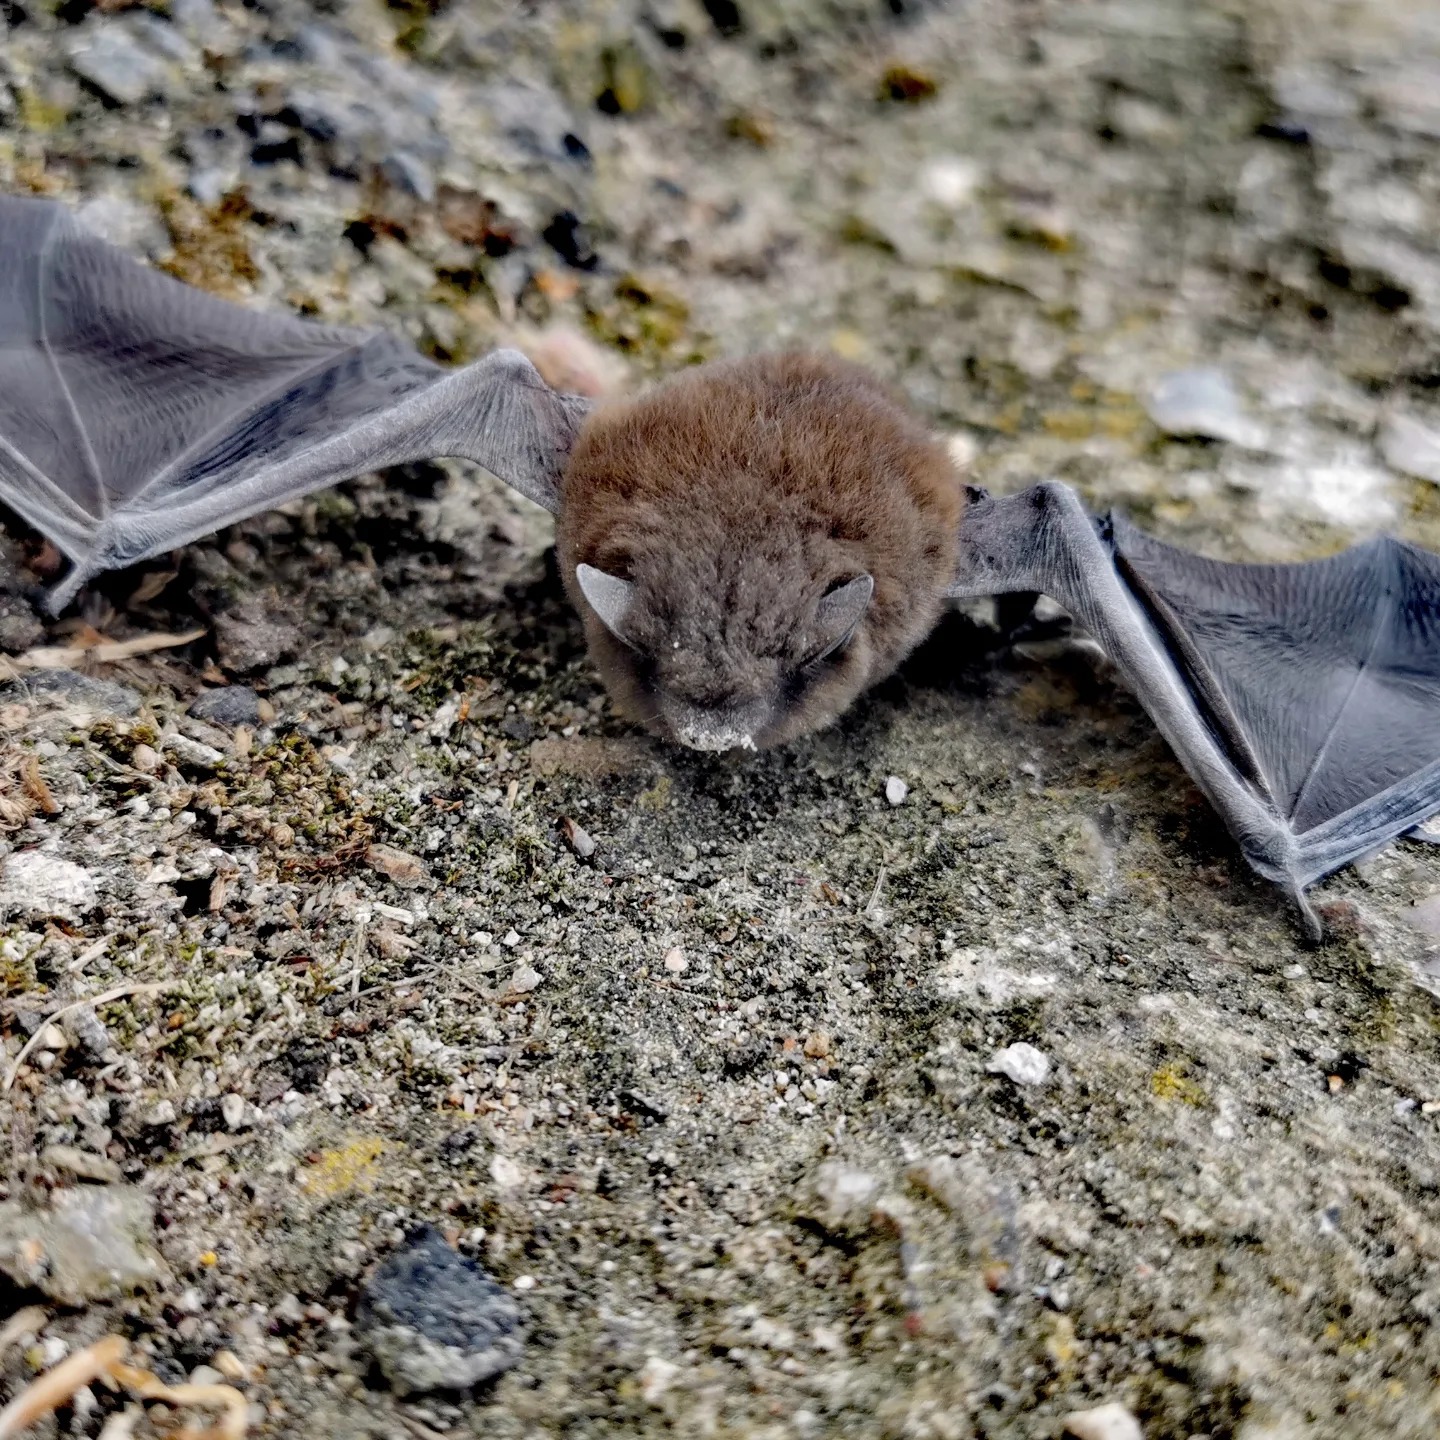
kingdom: Animalia
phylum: Chordata
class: Mammalia
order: Chiroptera
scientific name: Chiroptera
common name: Flagermus
